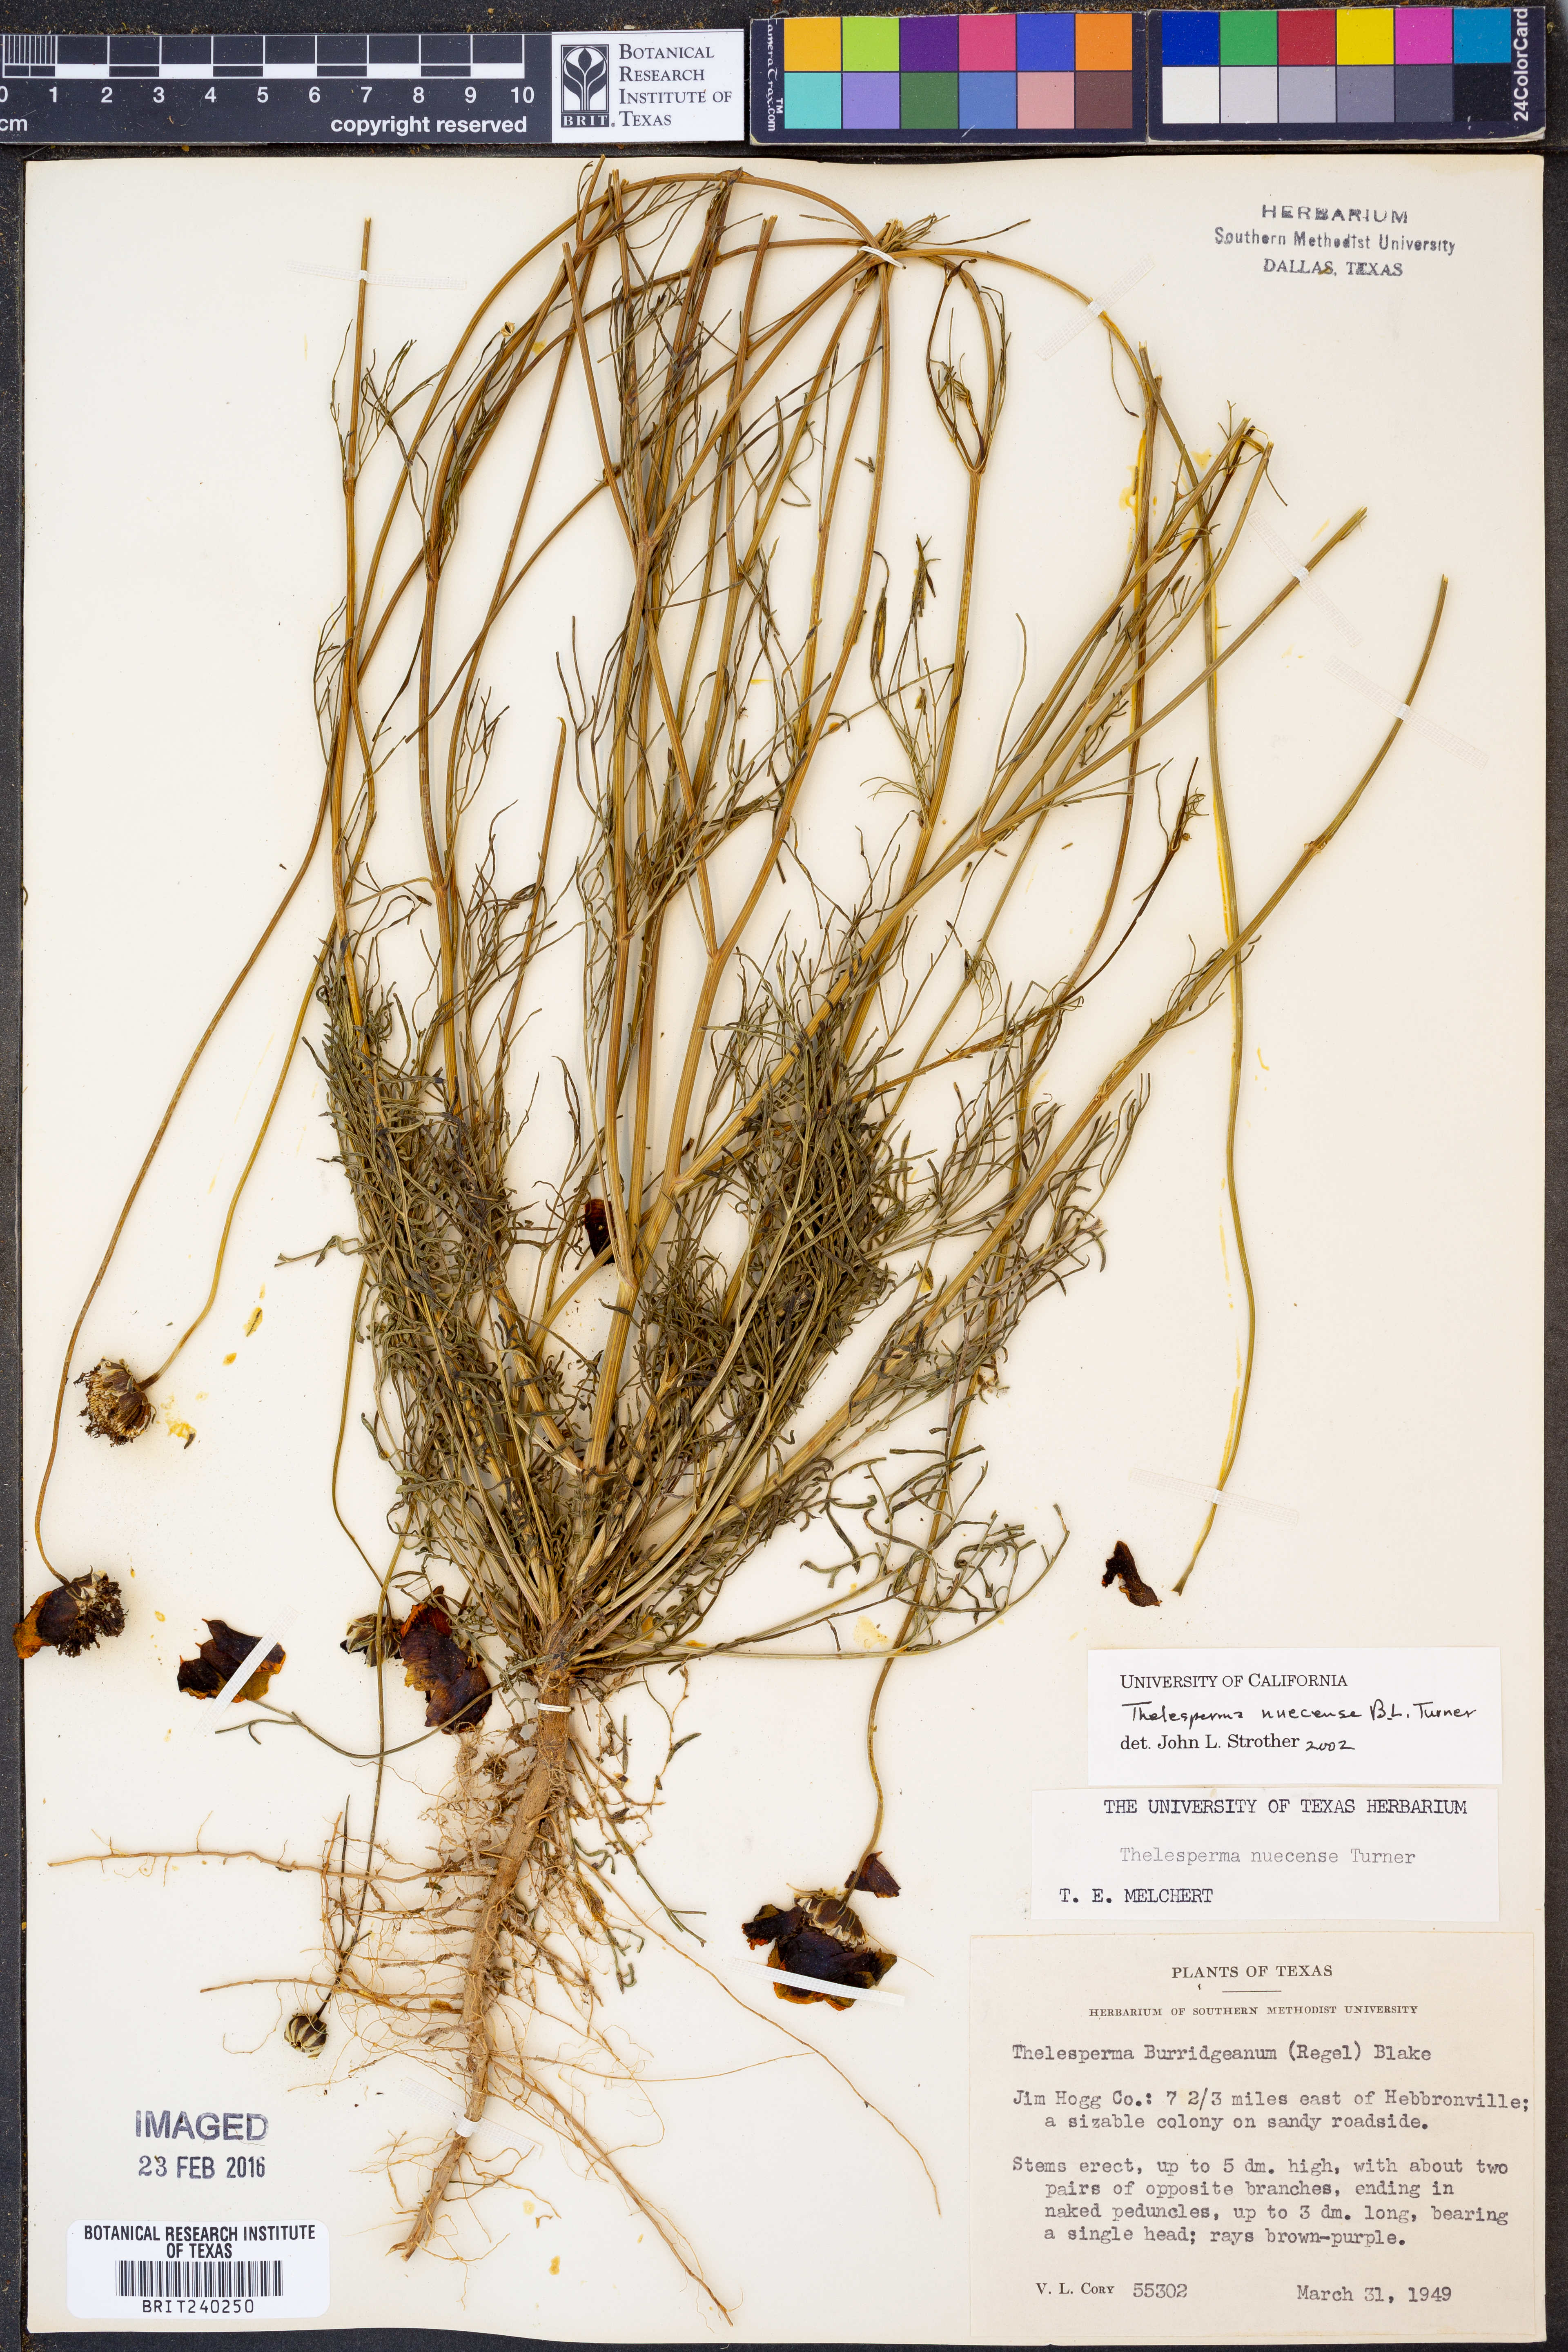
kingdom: Plantae
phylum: Tracheophyta
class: Magnoliopsida
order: Asterales
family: Asteraceae
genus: Thelesperma
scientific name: Thelesperma nuecense
